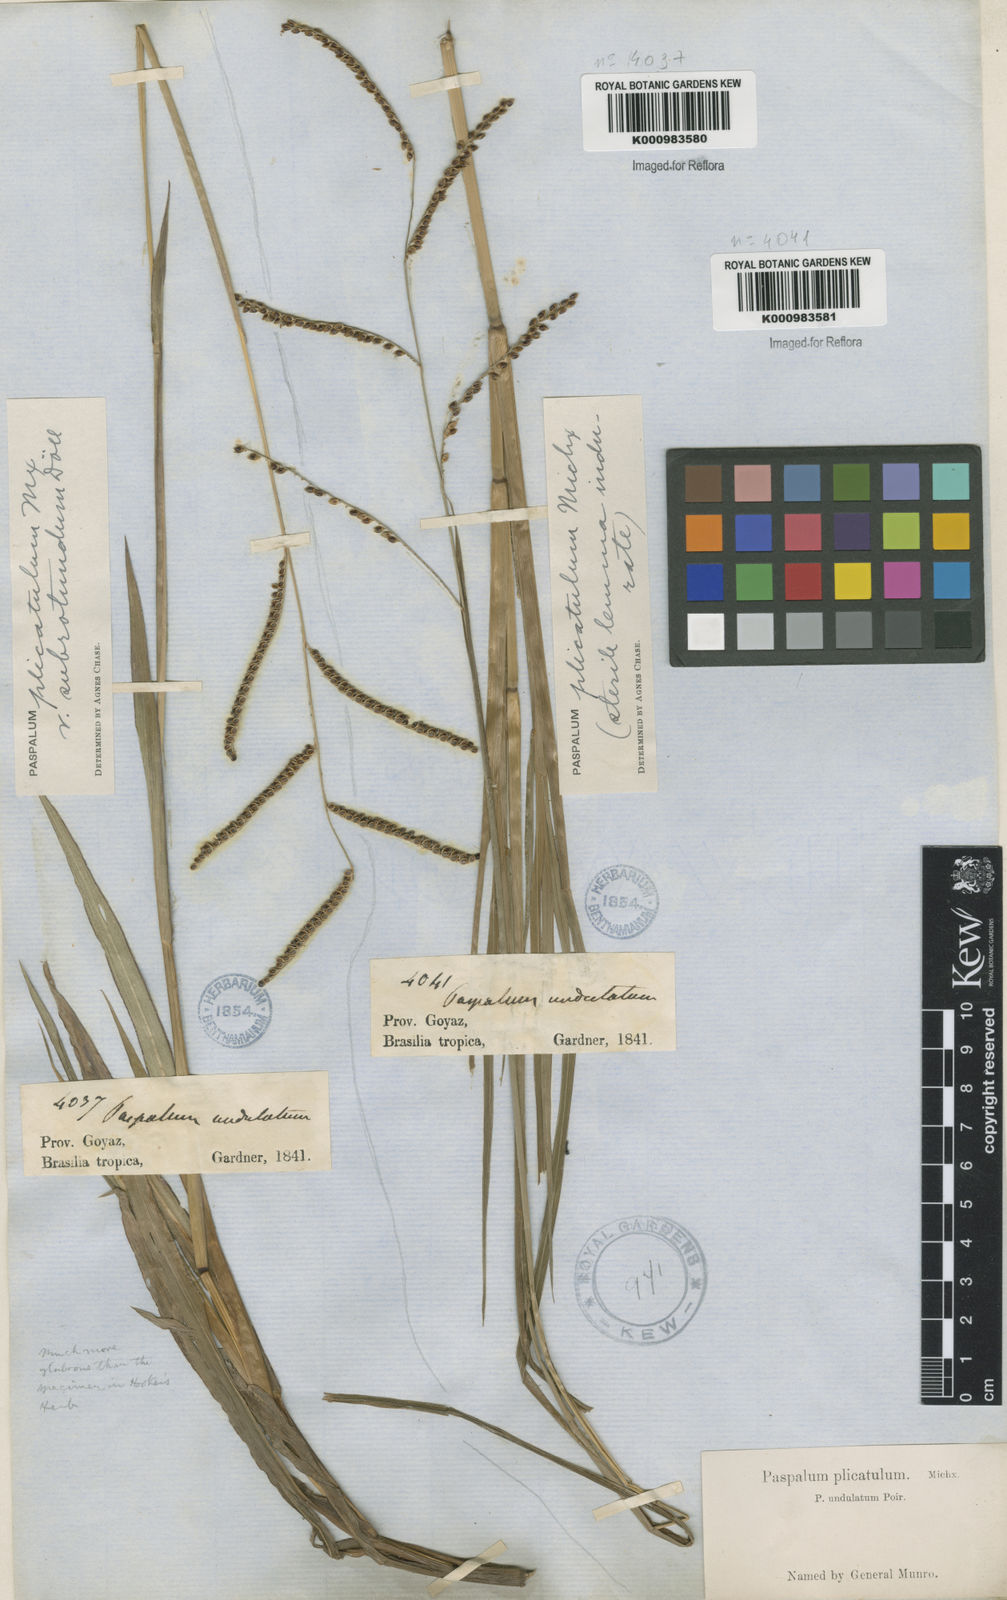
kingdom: Plantae
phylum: Tracheophyta
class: Liliopsida
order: Poales
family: Poaceae
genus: Paspalum
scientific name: Paspalum
